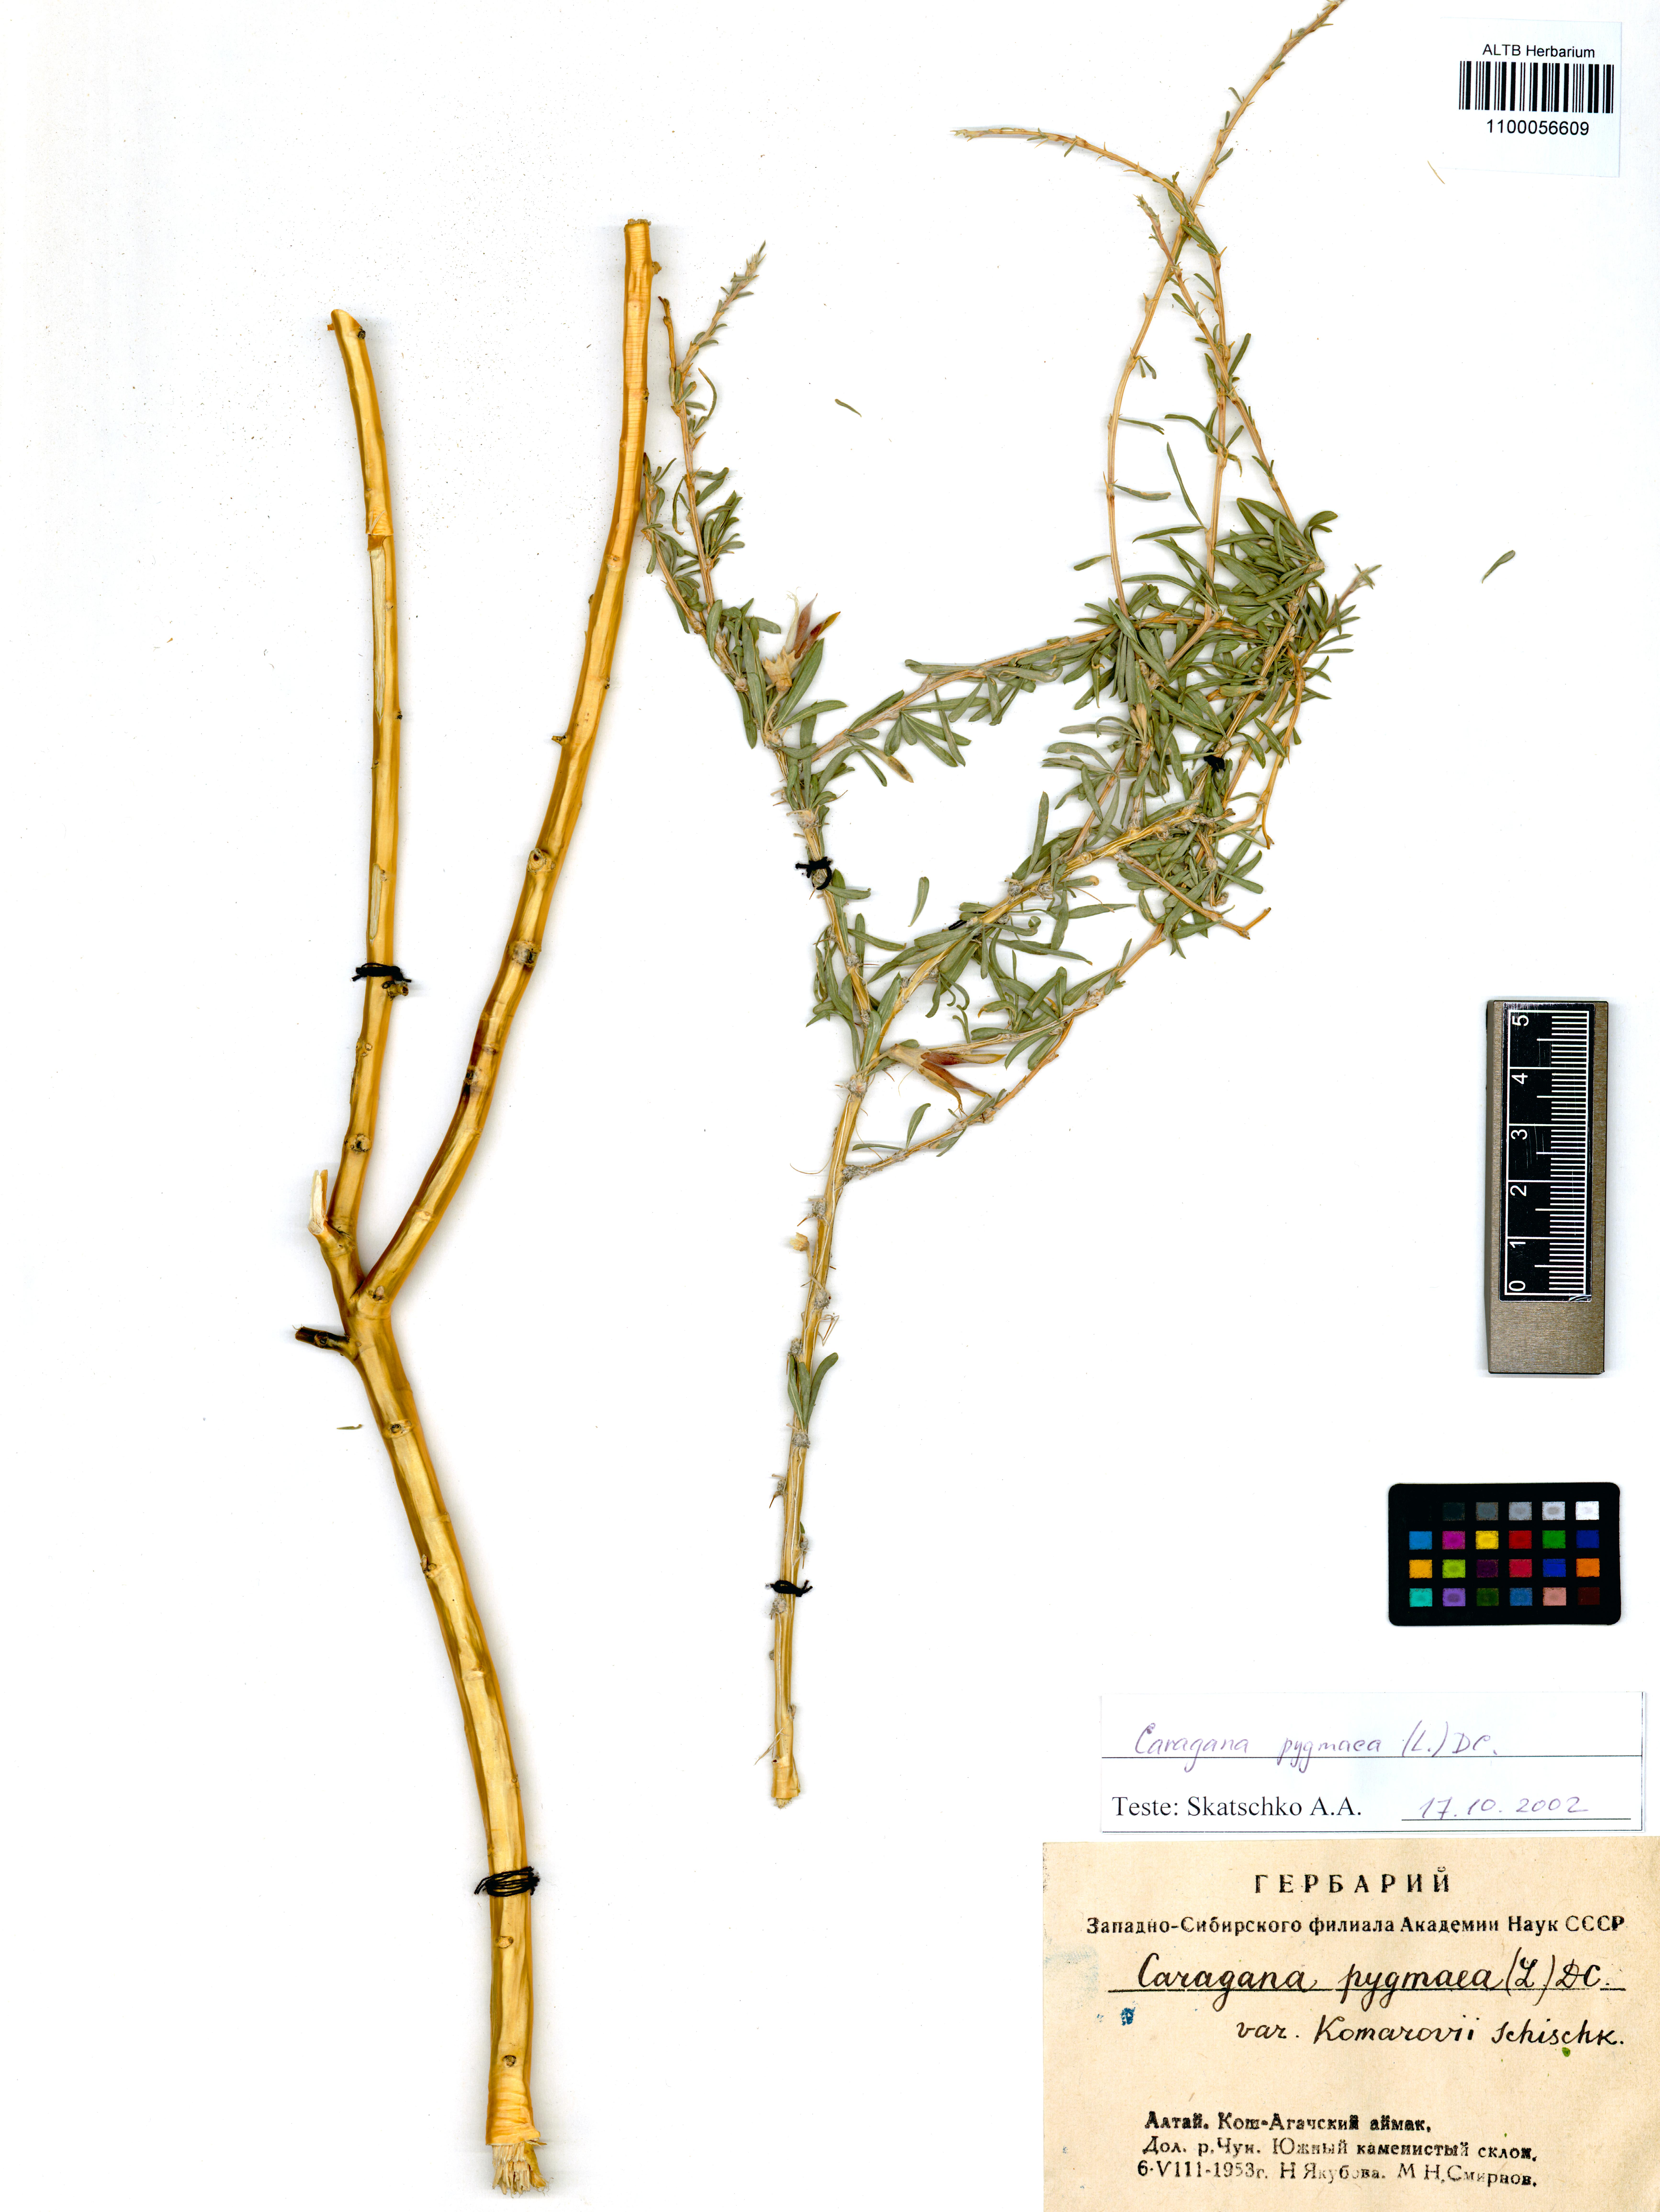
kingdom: Plantae
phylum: Tracheophyta
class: Magnoliopsida
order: Fabales
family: Fabaceae
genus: Caragana
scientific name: Caragana pygmaea
